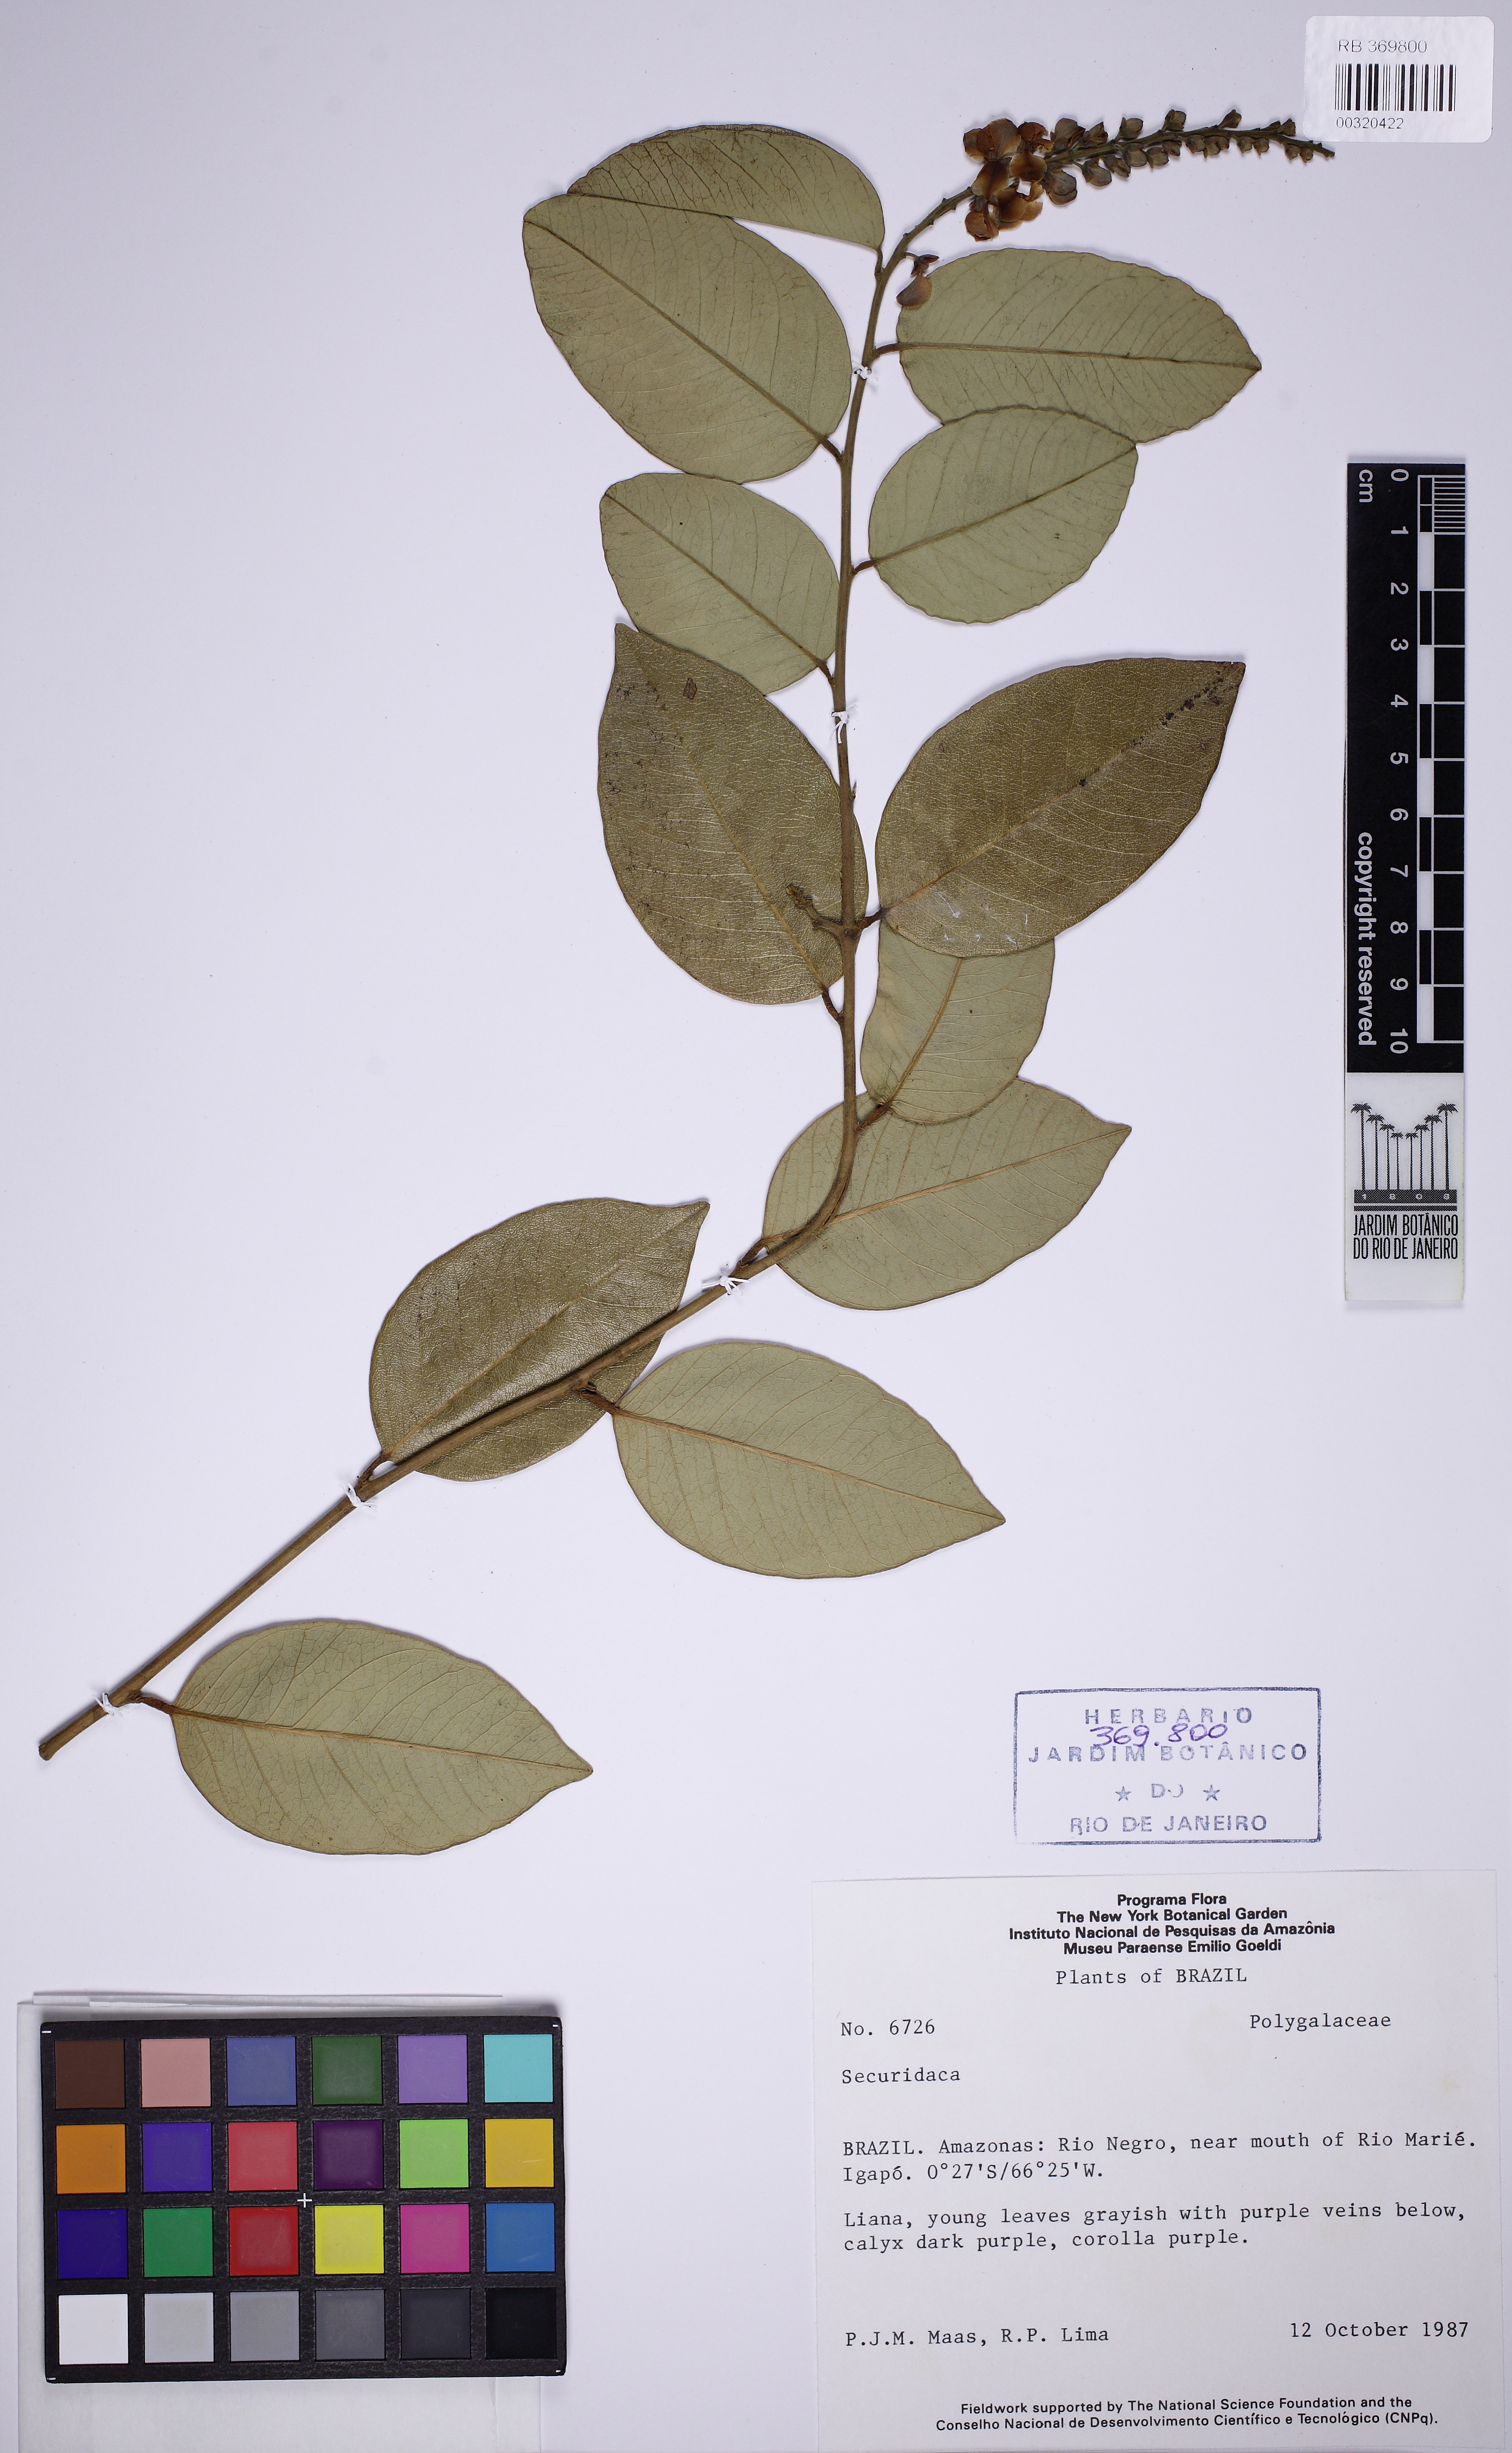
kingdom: Plantae
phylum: Tracheophyta
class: Magnoliopsida
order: Fabales
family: Polygalaceae
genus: Securidaca
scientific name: Securidaca
